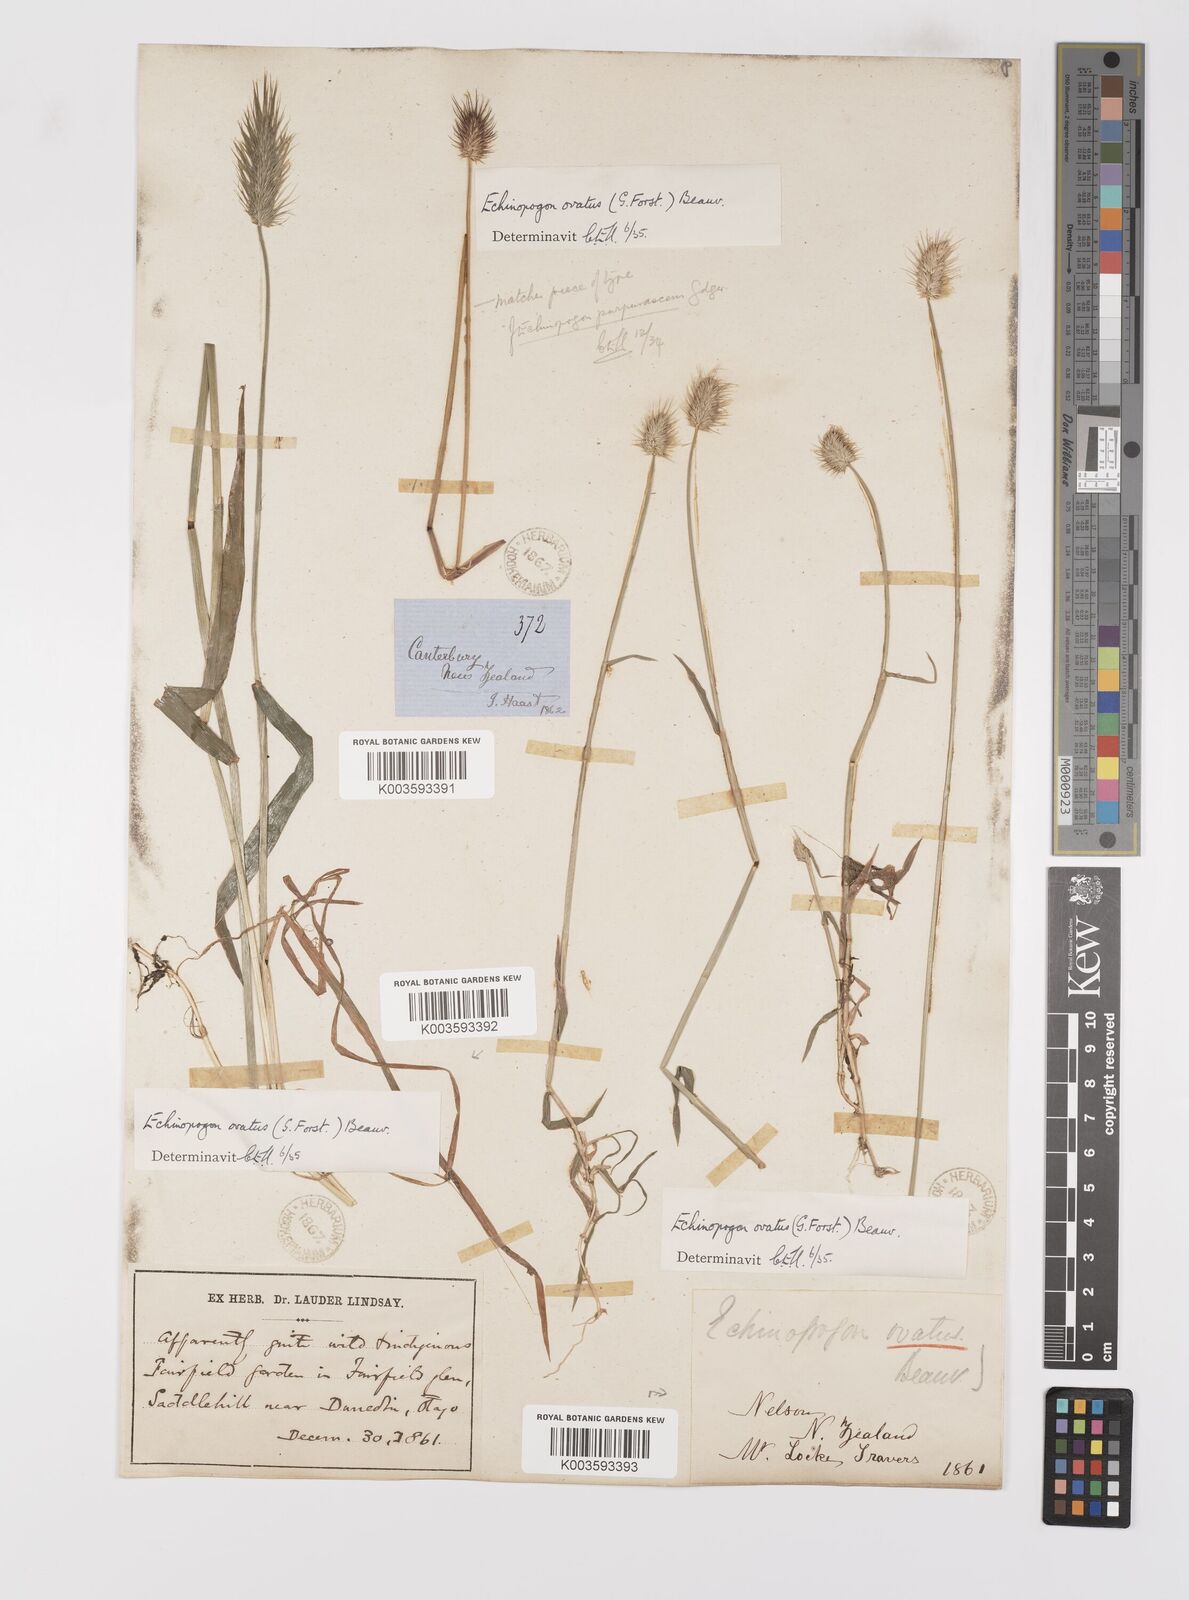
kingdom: Plantae
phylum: Tracheophyta
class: Liliopsida
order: Poales
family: Poaceae
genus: Echinopogon
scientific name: Echinopogon ovatus
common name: Hedgehog-grass
